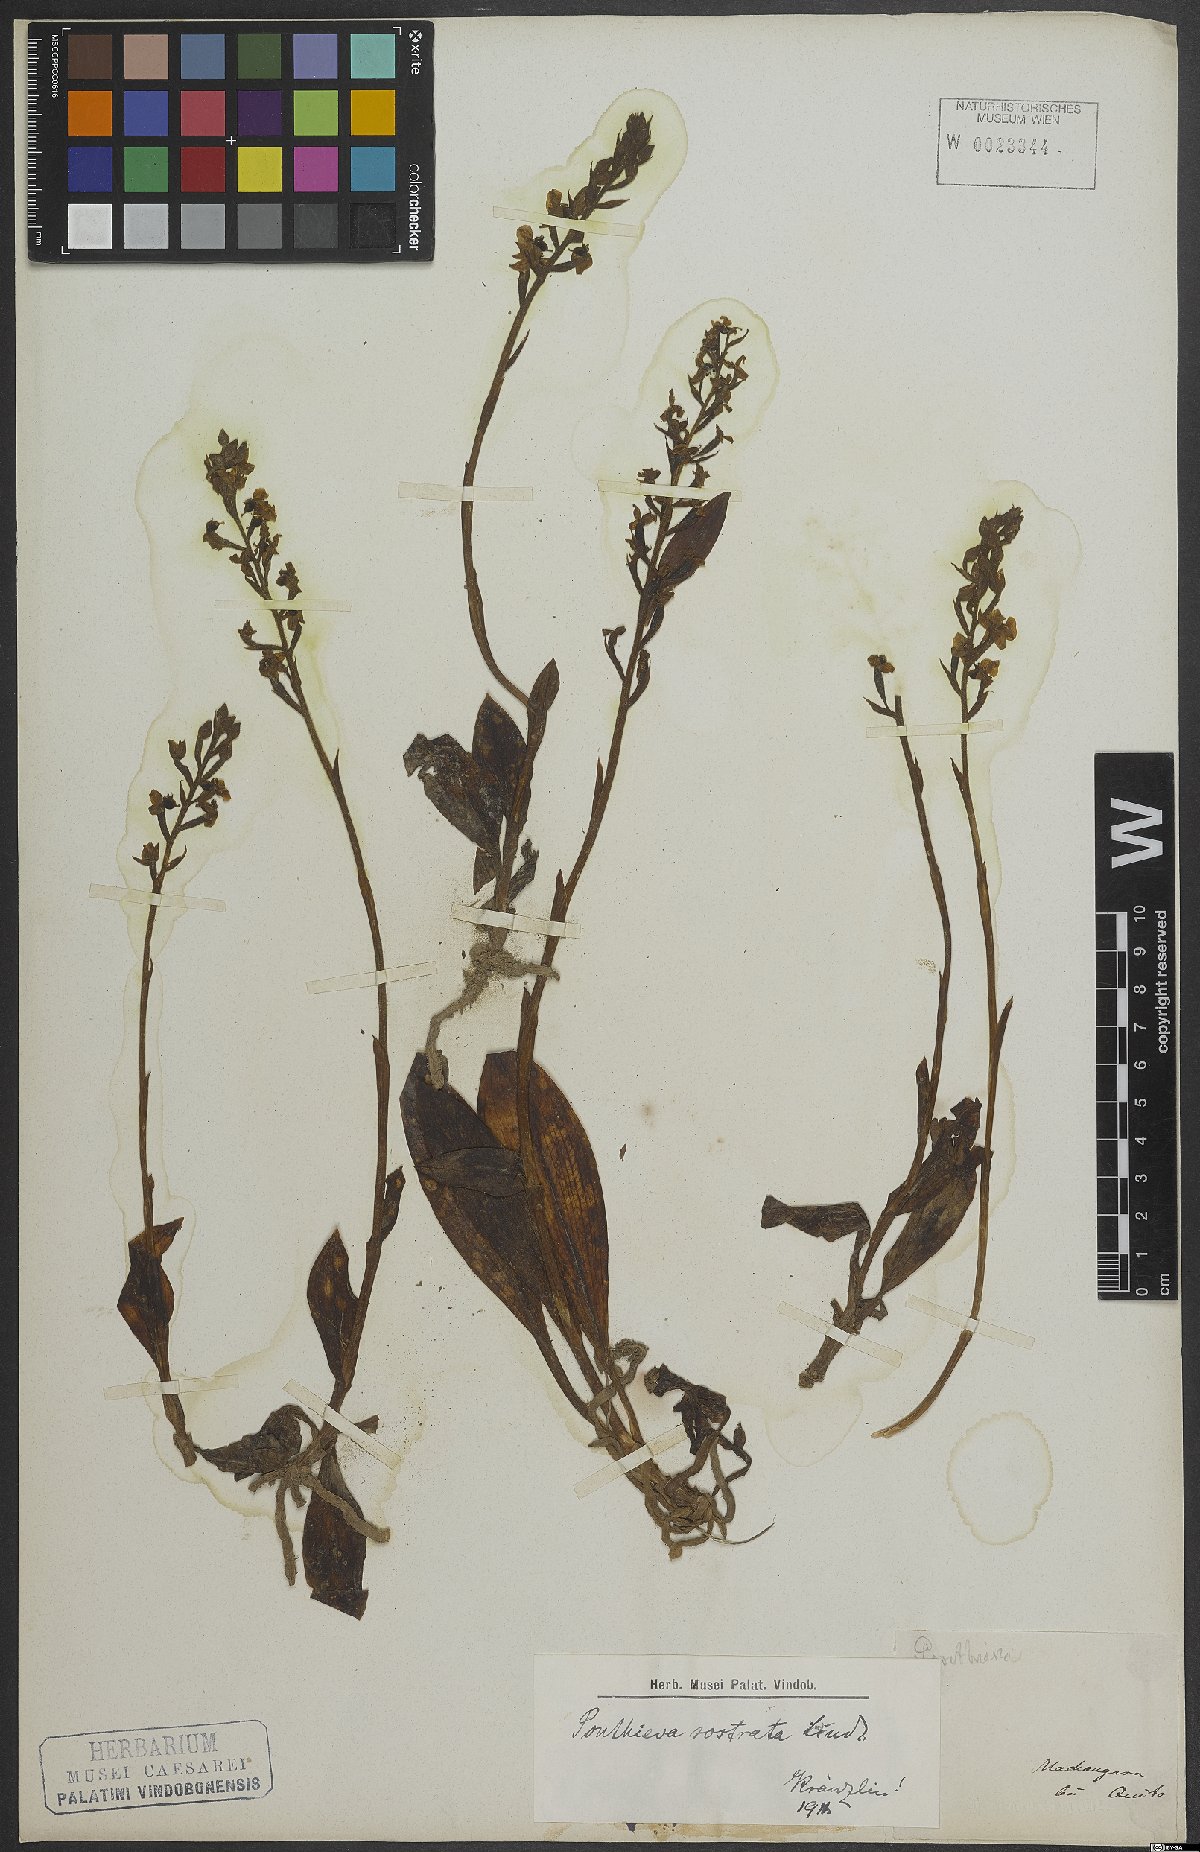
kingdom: Plantae
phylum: Tracheophyta
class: Liliopsida
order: Asparagales
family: Orchidaceae
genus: Ponthieva
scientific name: Ponthieva rostrata
